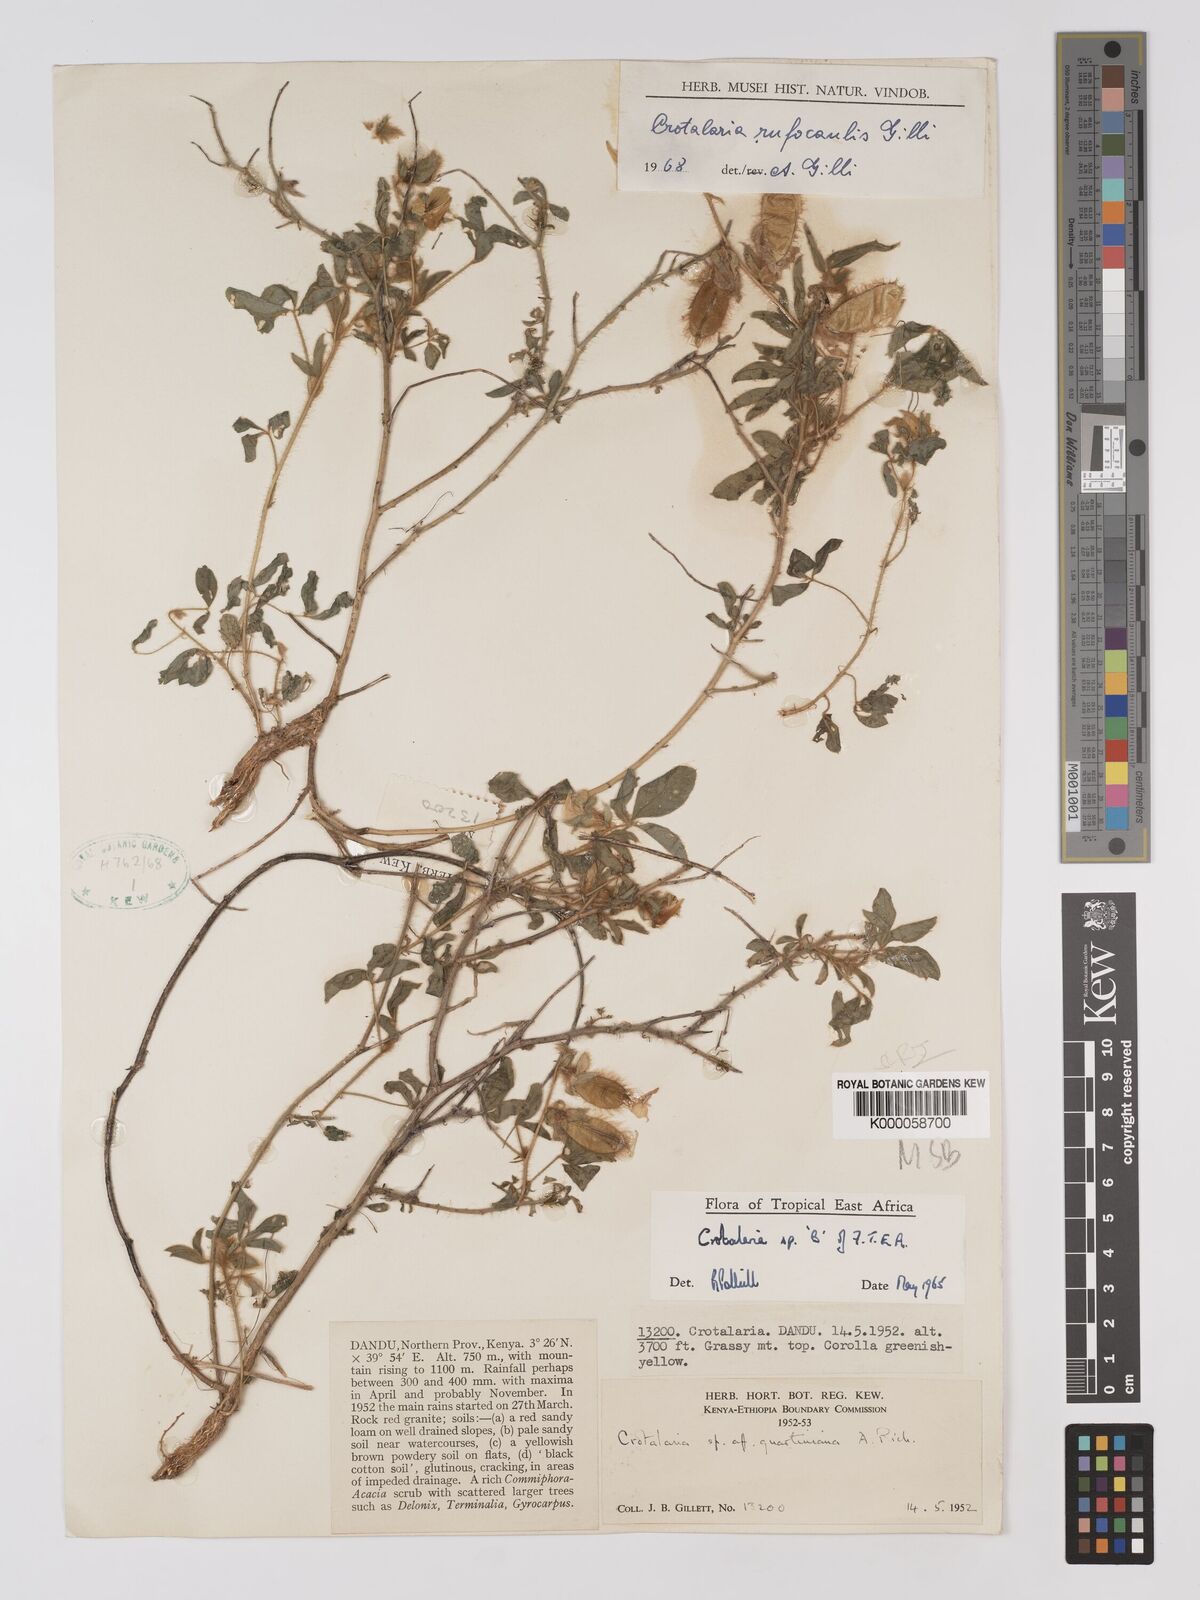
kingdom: Plantae
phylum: Tracheophyta
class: Magnoliopsida
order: Fabales
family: Fabaceae
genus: Crotalaria
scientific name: Crotalaria rufocaulis
